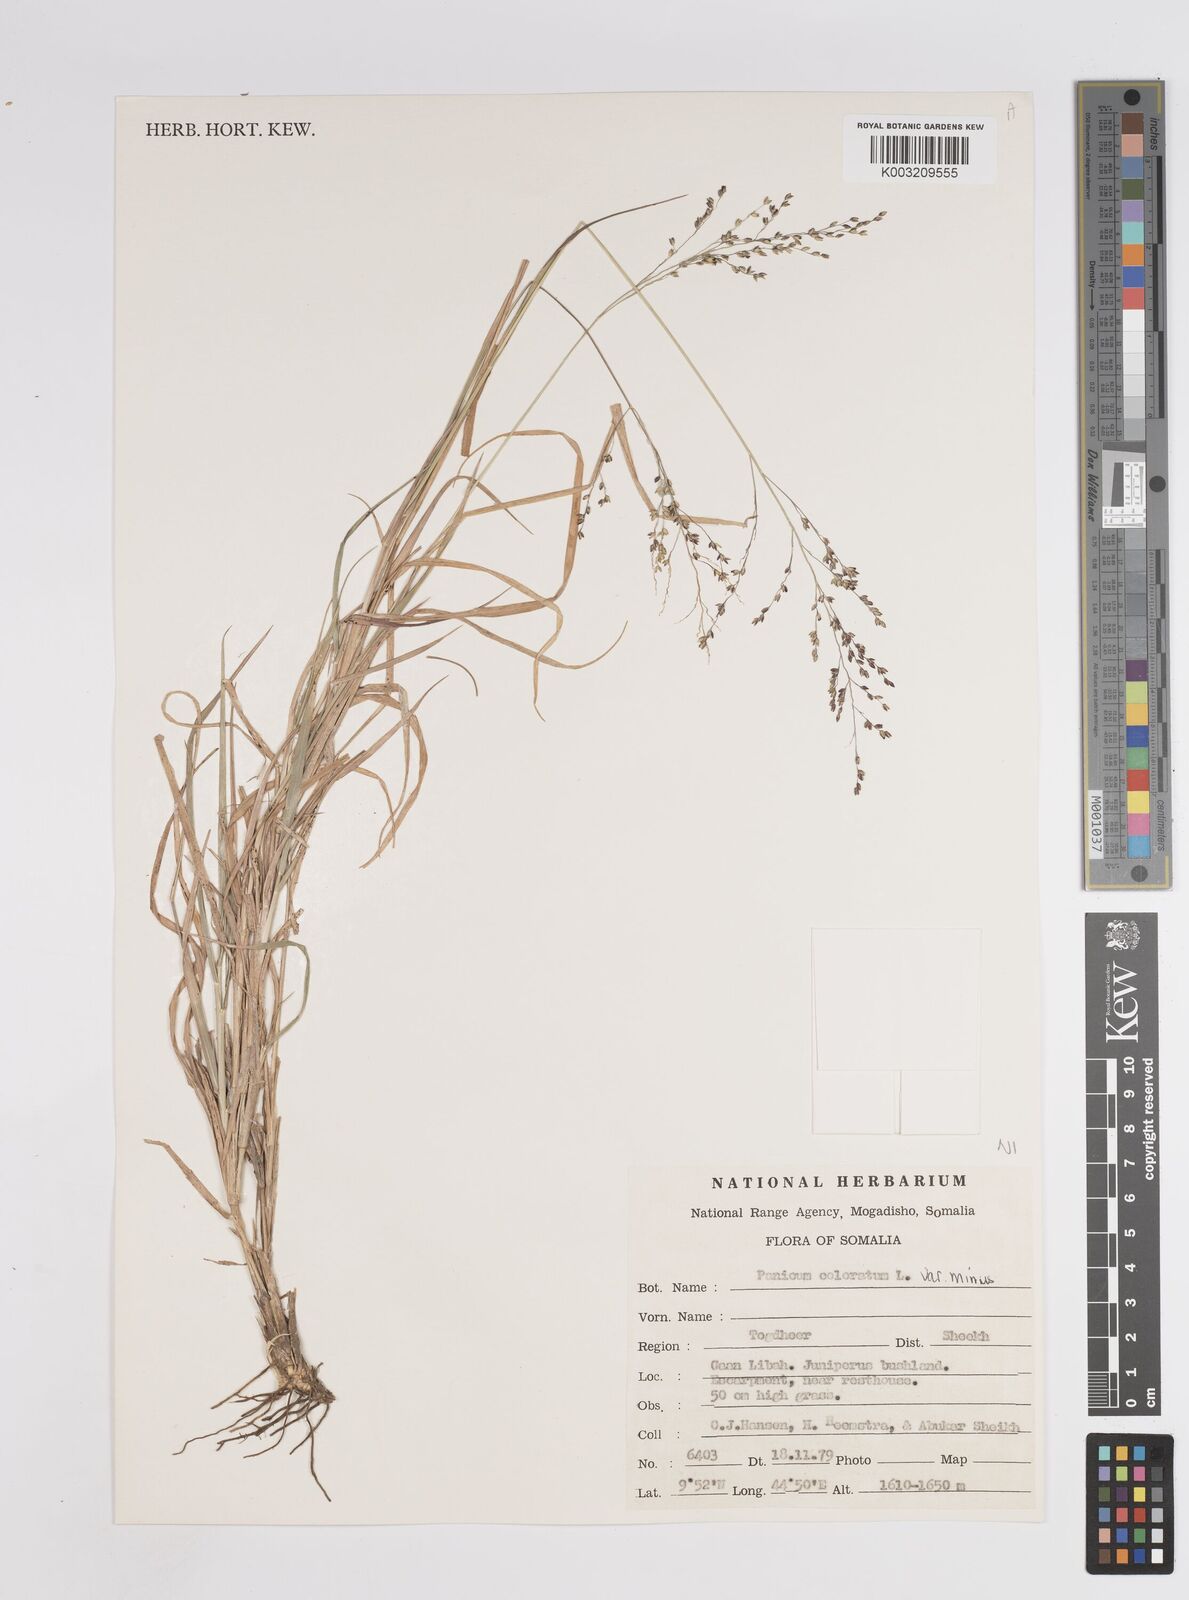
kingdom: Plantae
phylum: Tracheophyta
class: Liliopsida
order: Poales
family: Poaceae
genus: Panicum
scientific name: Panicum coloratum
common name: Kleingrass
